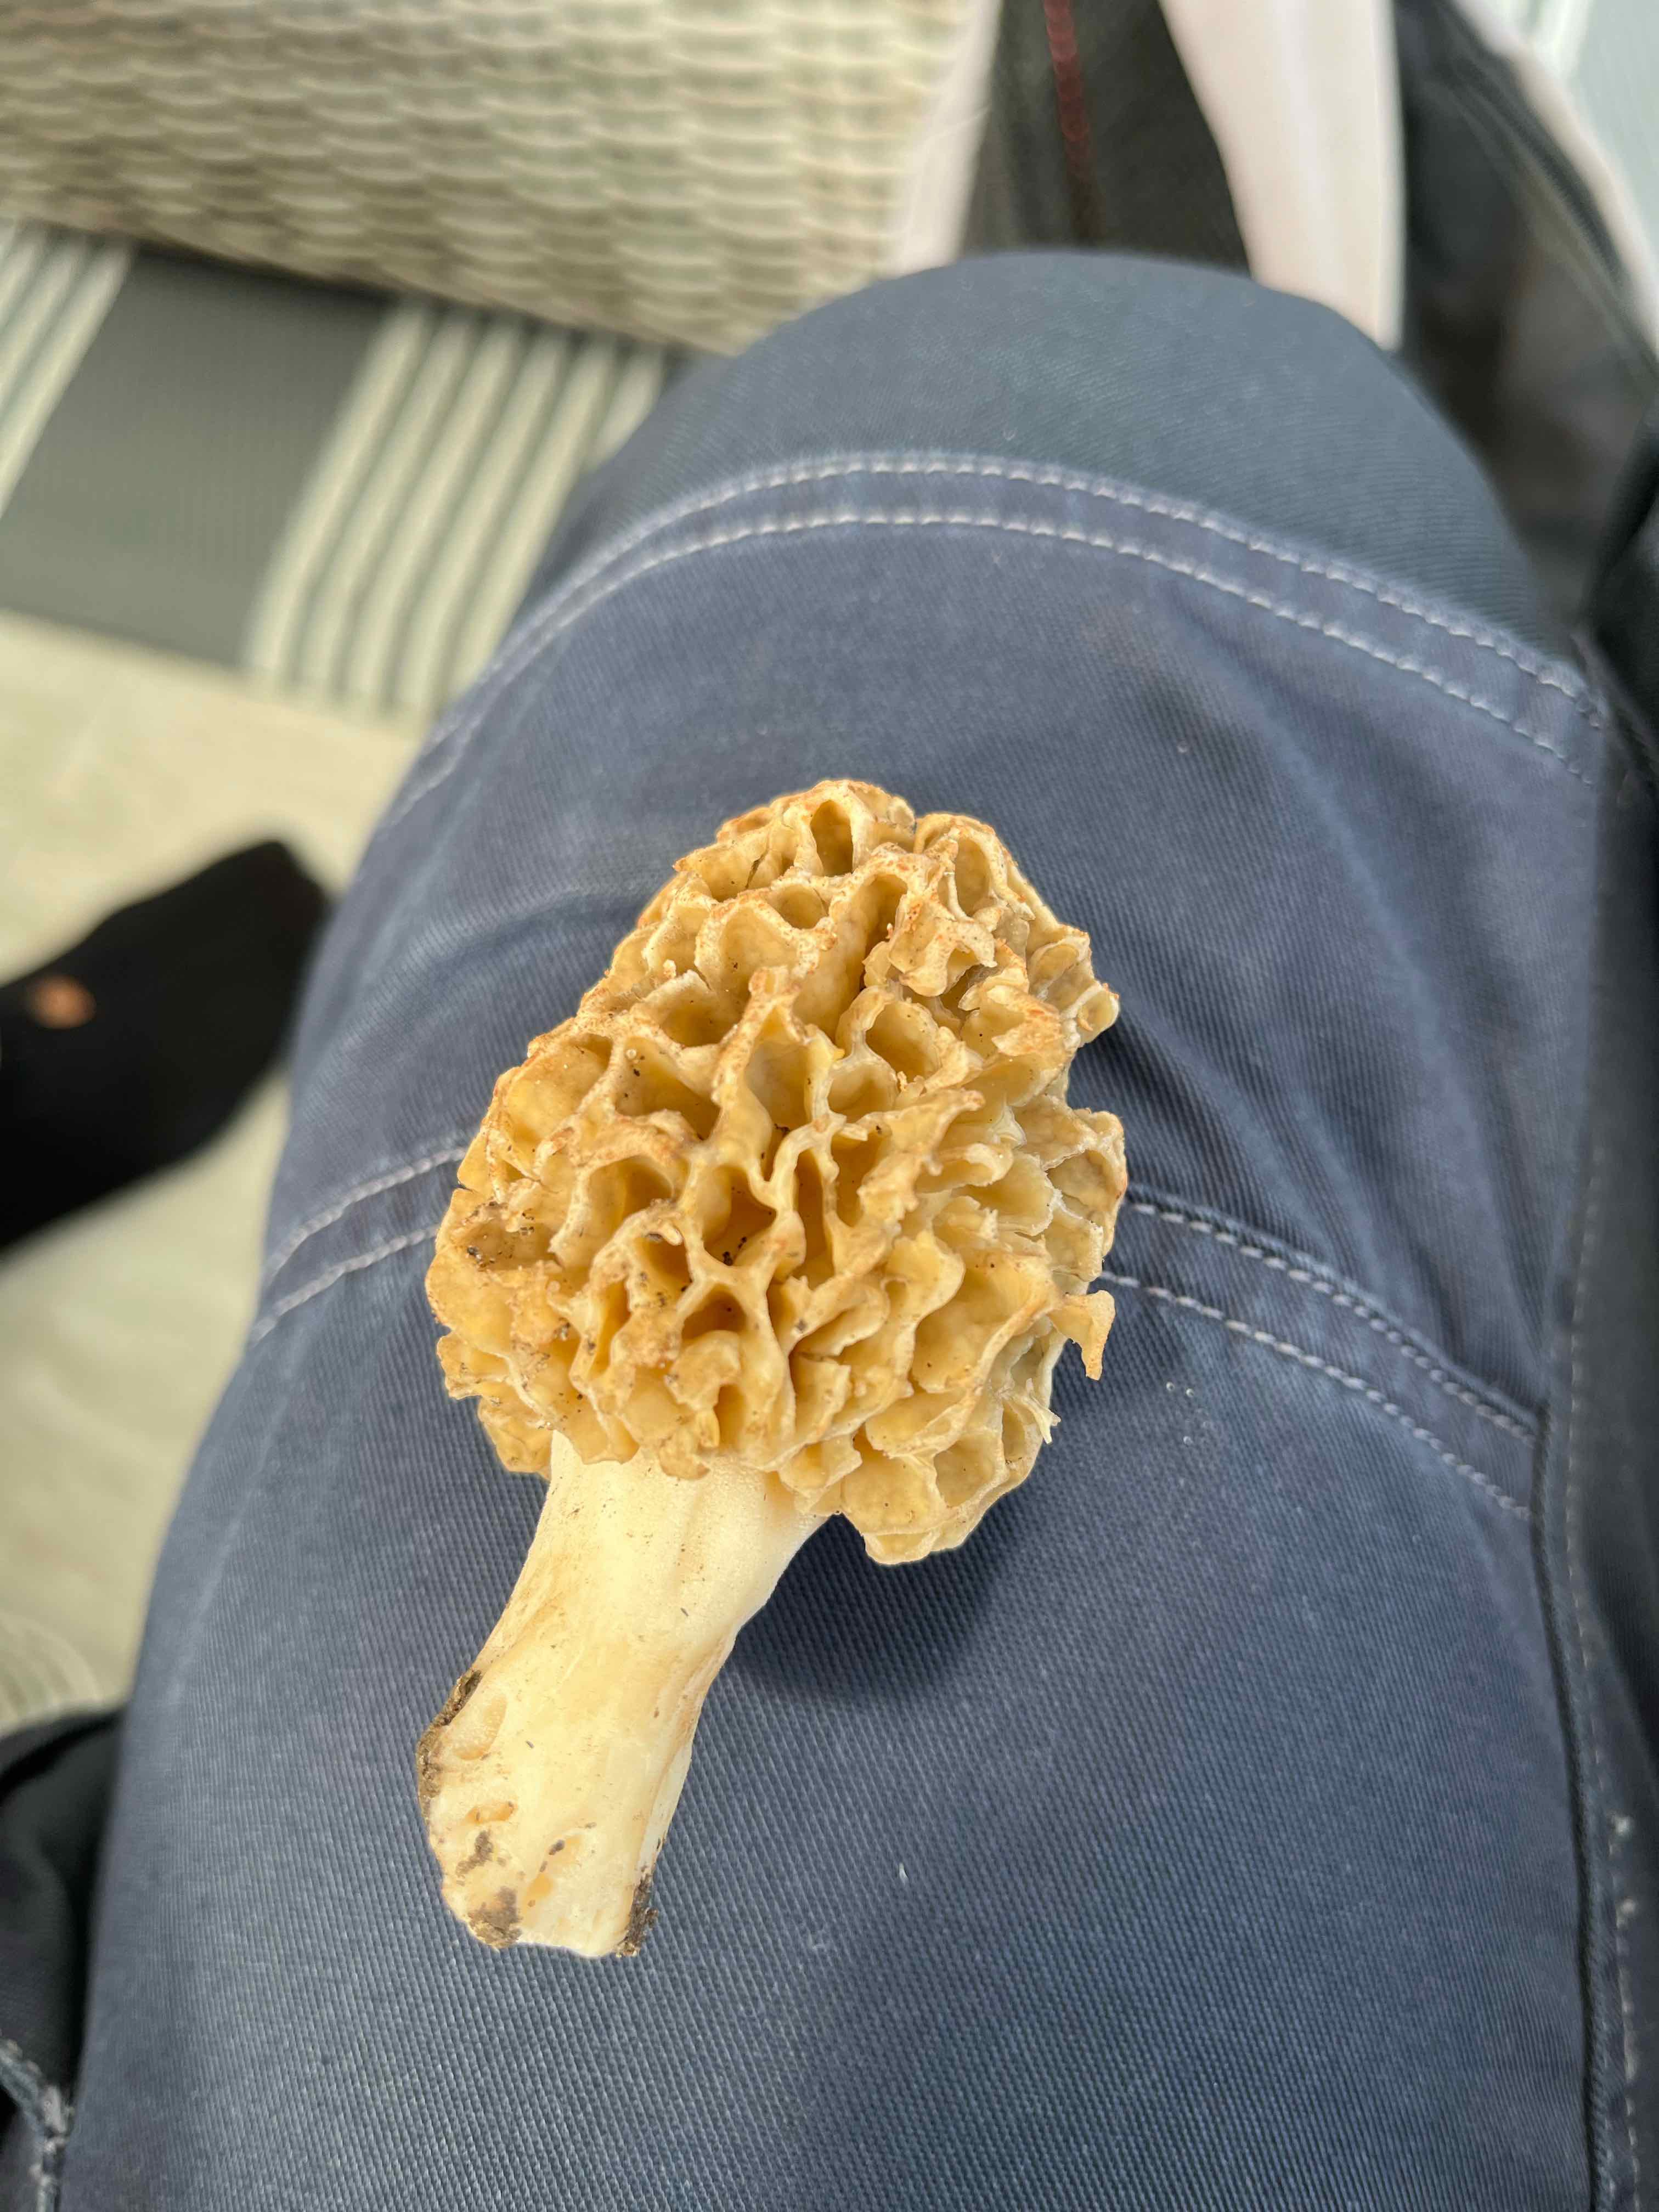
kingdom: Fungi
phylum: Ascomycota
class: Pezizomycetes
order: Pezizales
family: Morchellaceae
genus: Morchella
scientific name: Morchella esculenta
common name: spiselig morkel
